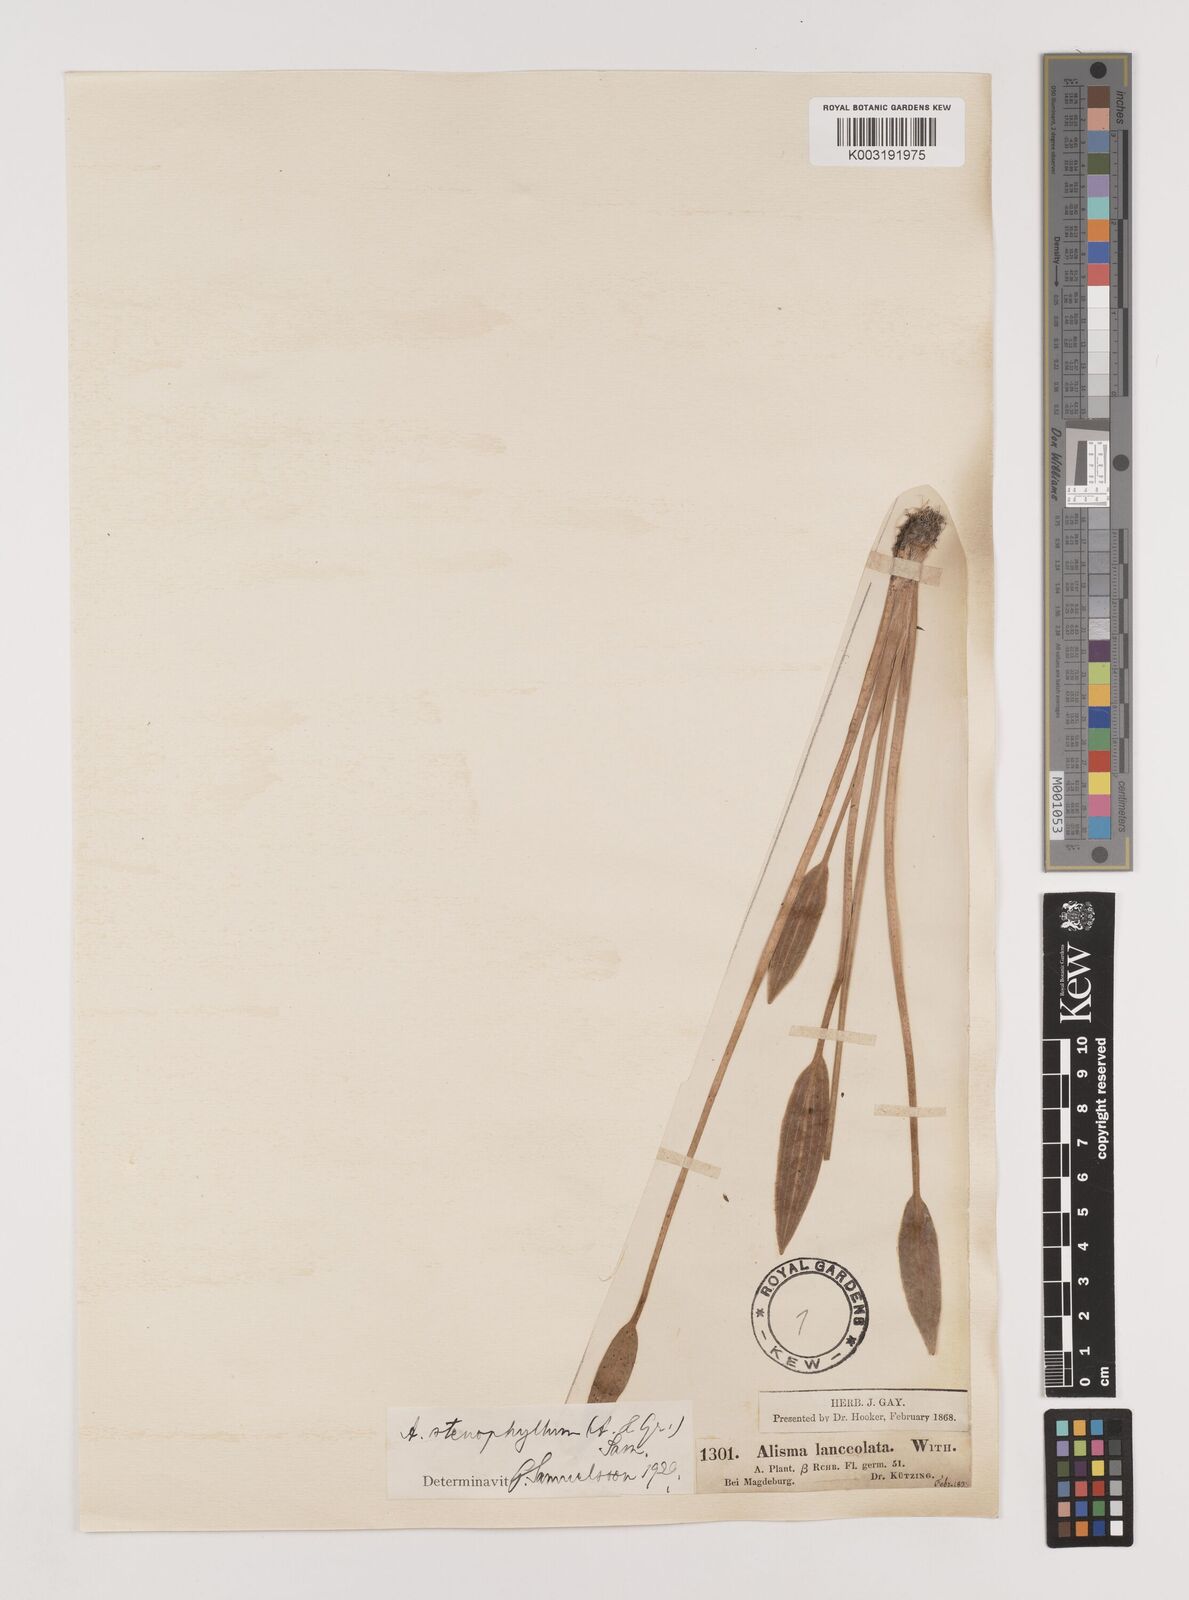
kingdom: Plantae
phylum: Tracheophyta
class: Liliopsida
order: Alismatales
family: Alismataceae
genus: Alisma
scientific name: Alisma lanceolatum
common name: Narrow-leaved water-plantain
